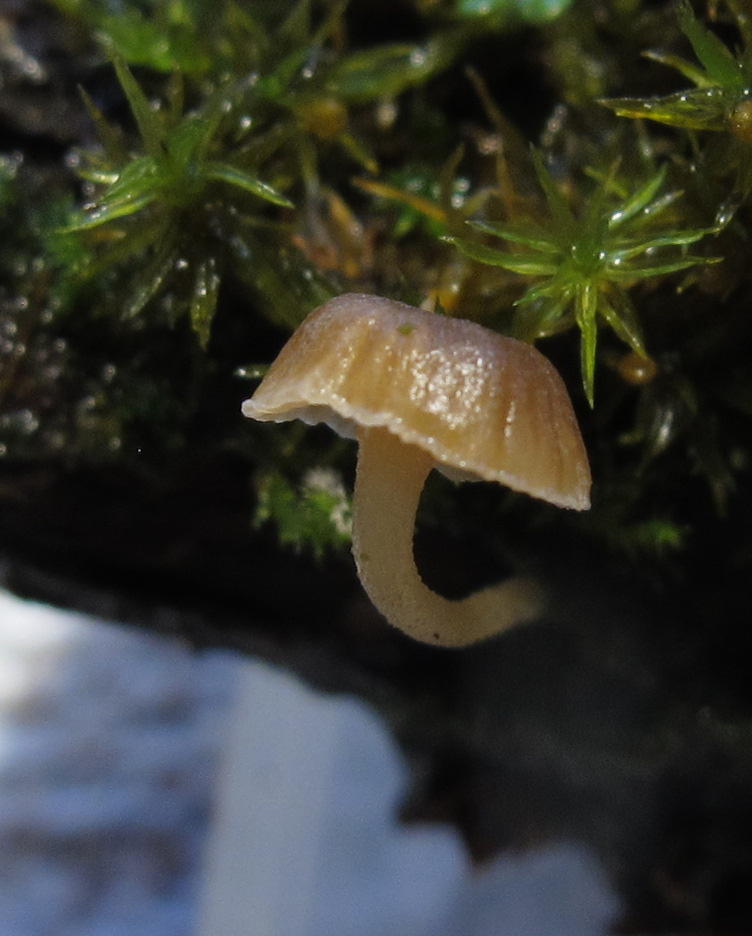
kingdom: Fungi
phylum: Basidiomycota
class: Agaricomycetes
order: Agaricales
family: Porotheleaceae
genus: Phloeomana
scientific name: Phloeomana clavata
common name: brunbladet huesvamp
